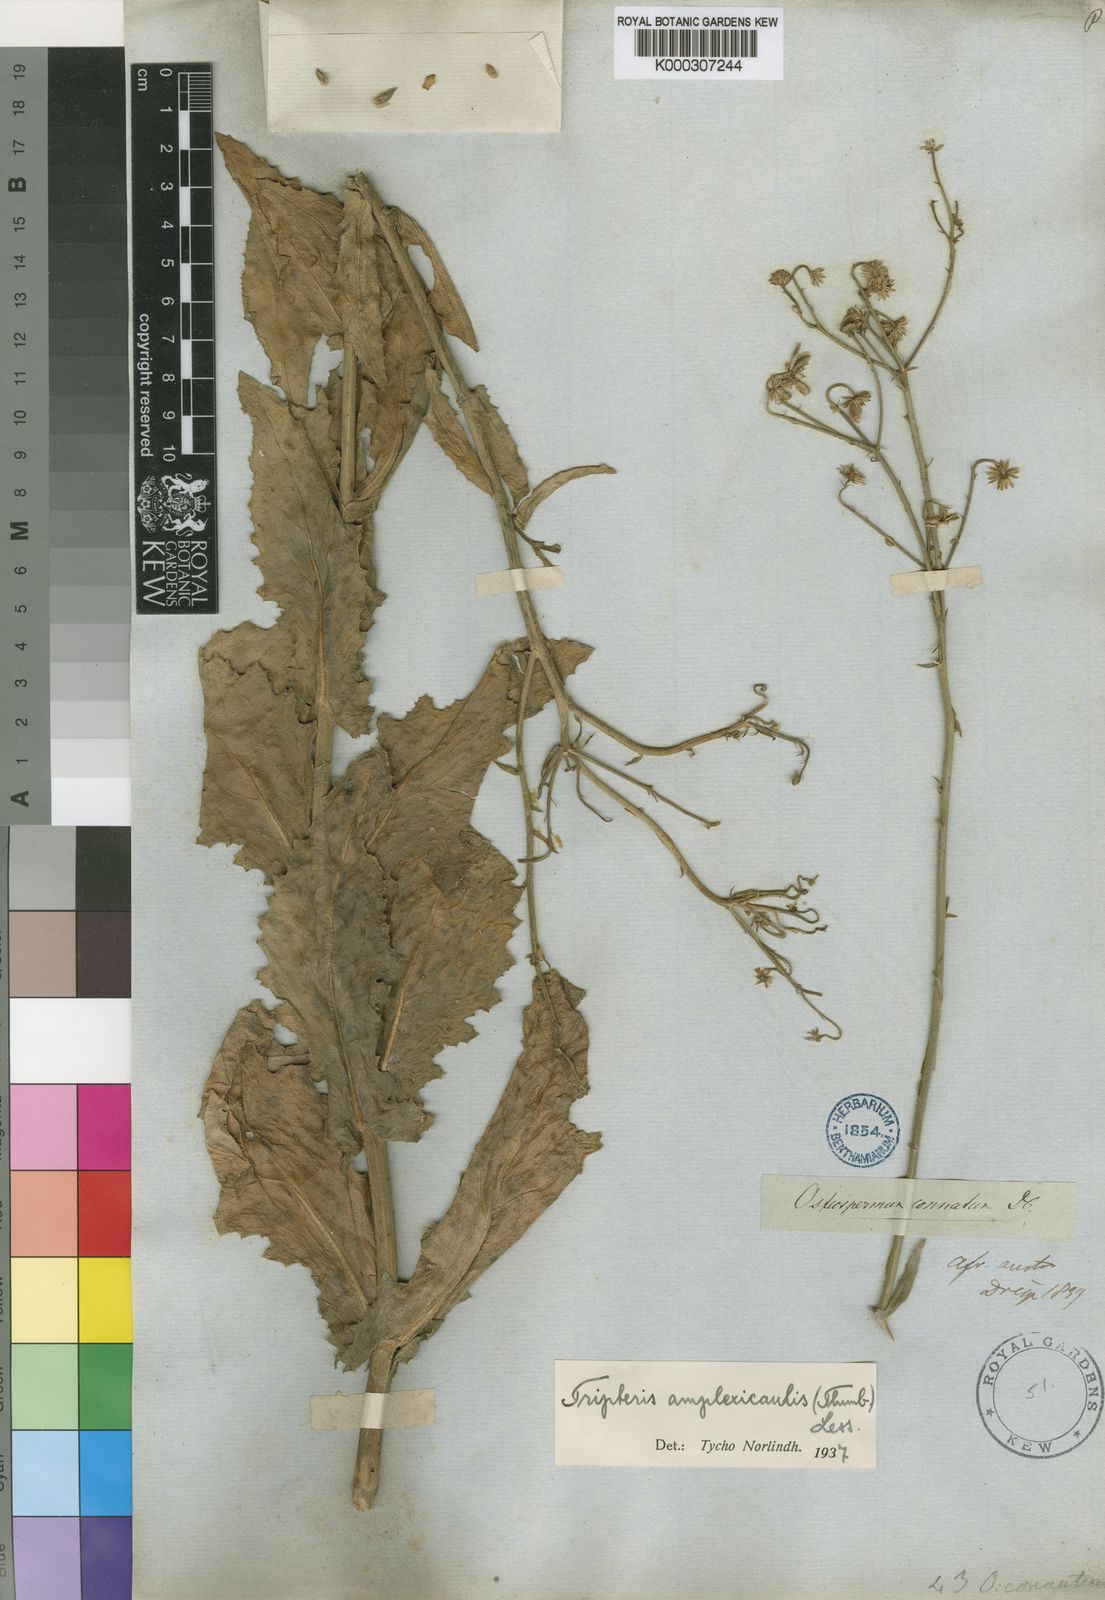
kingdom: Plantae
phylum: Tracheophyta
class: Magnoliopsida
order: Asterales
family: Asteraceae
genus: Osteospermum
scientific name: Osteospermum connatum
